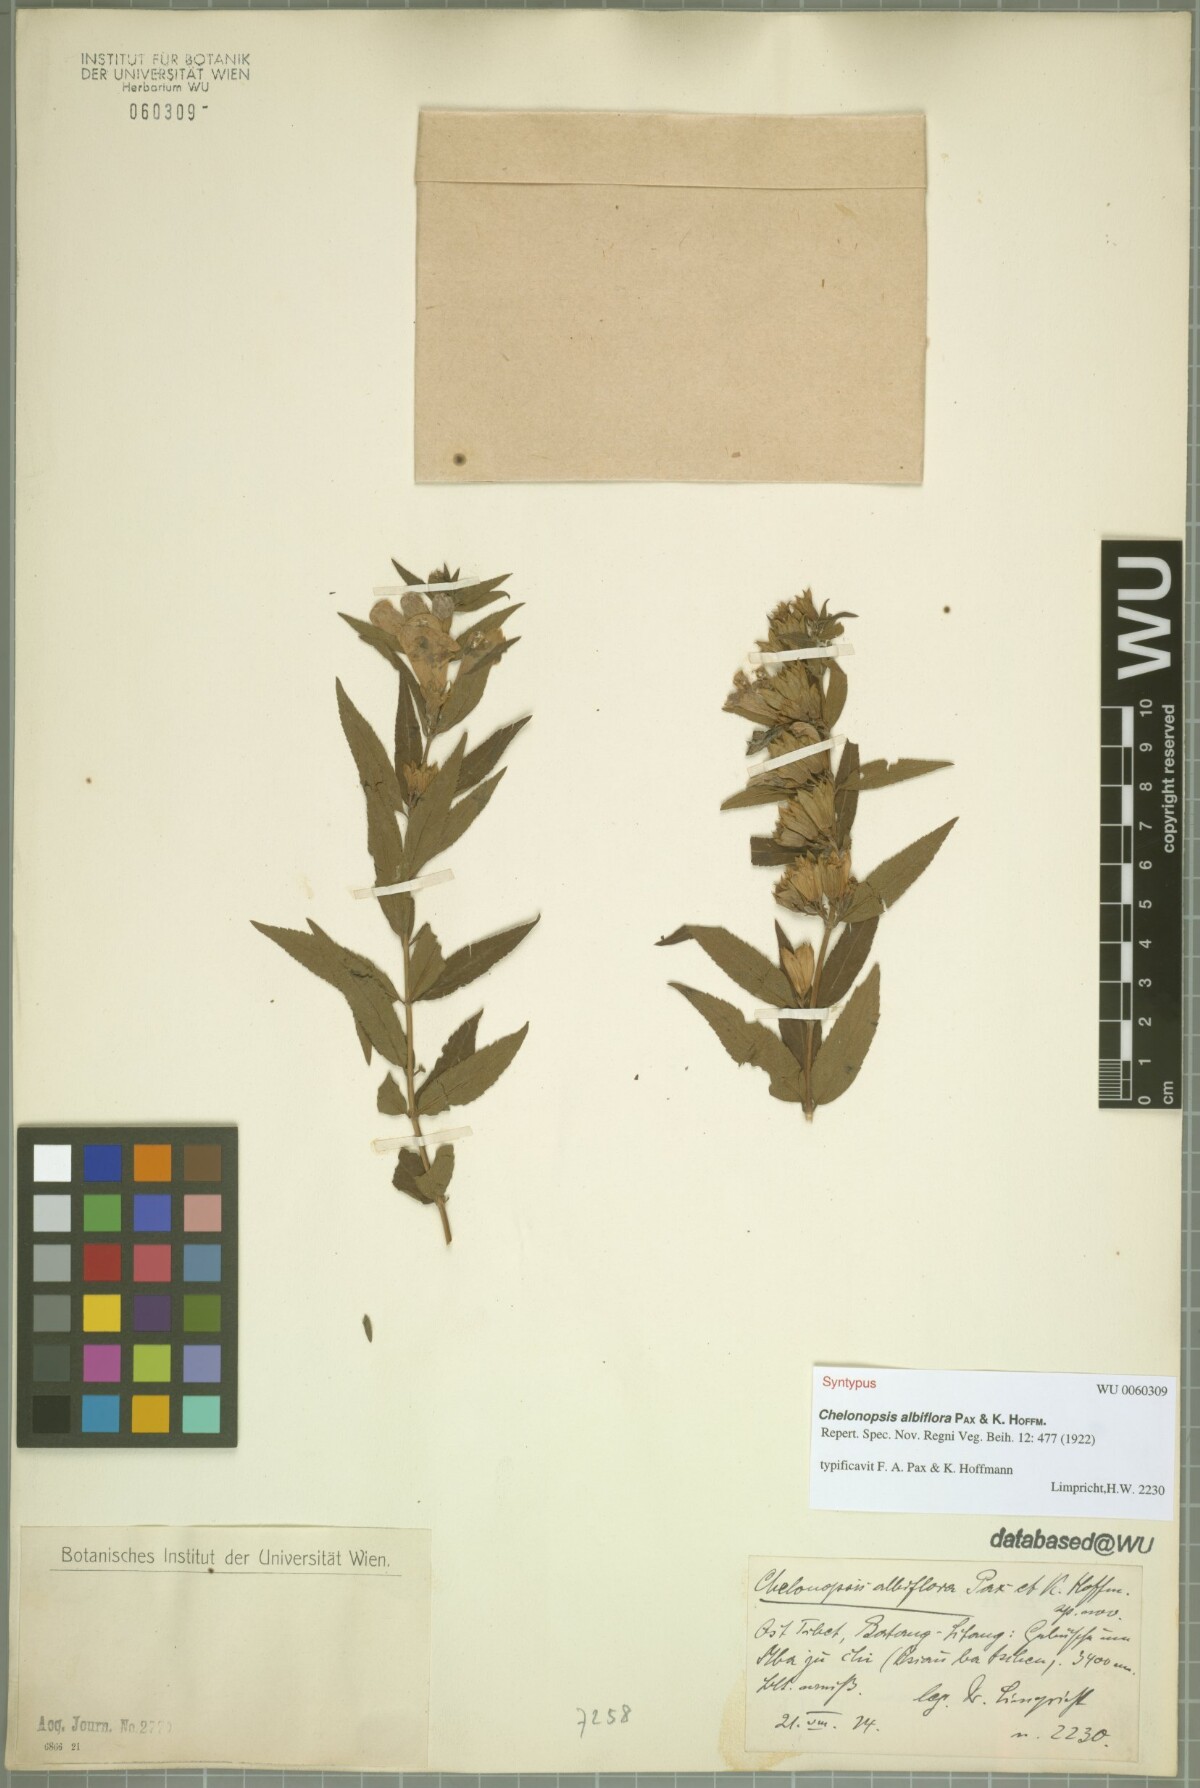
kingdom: Plantae
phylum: Tracheophyta
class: Magnoliopsida
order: Lamiales
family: Lamiaceae
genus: Chelonopsis
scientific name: Chelonopsis souliei
